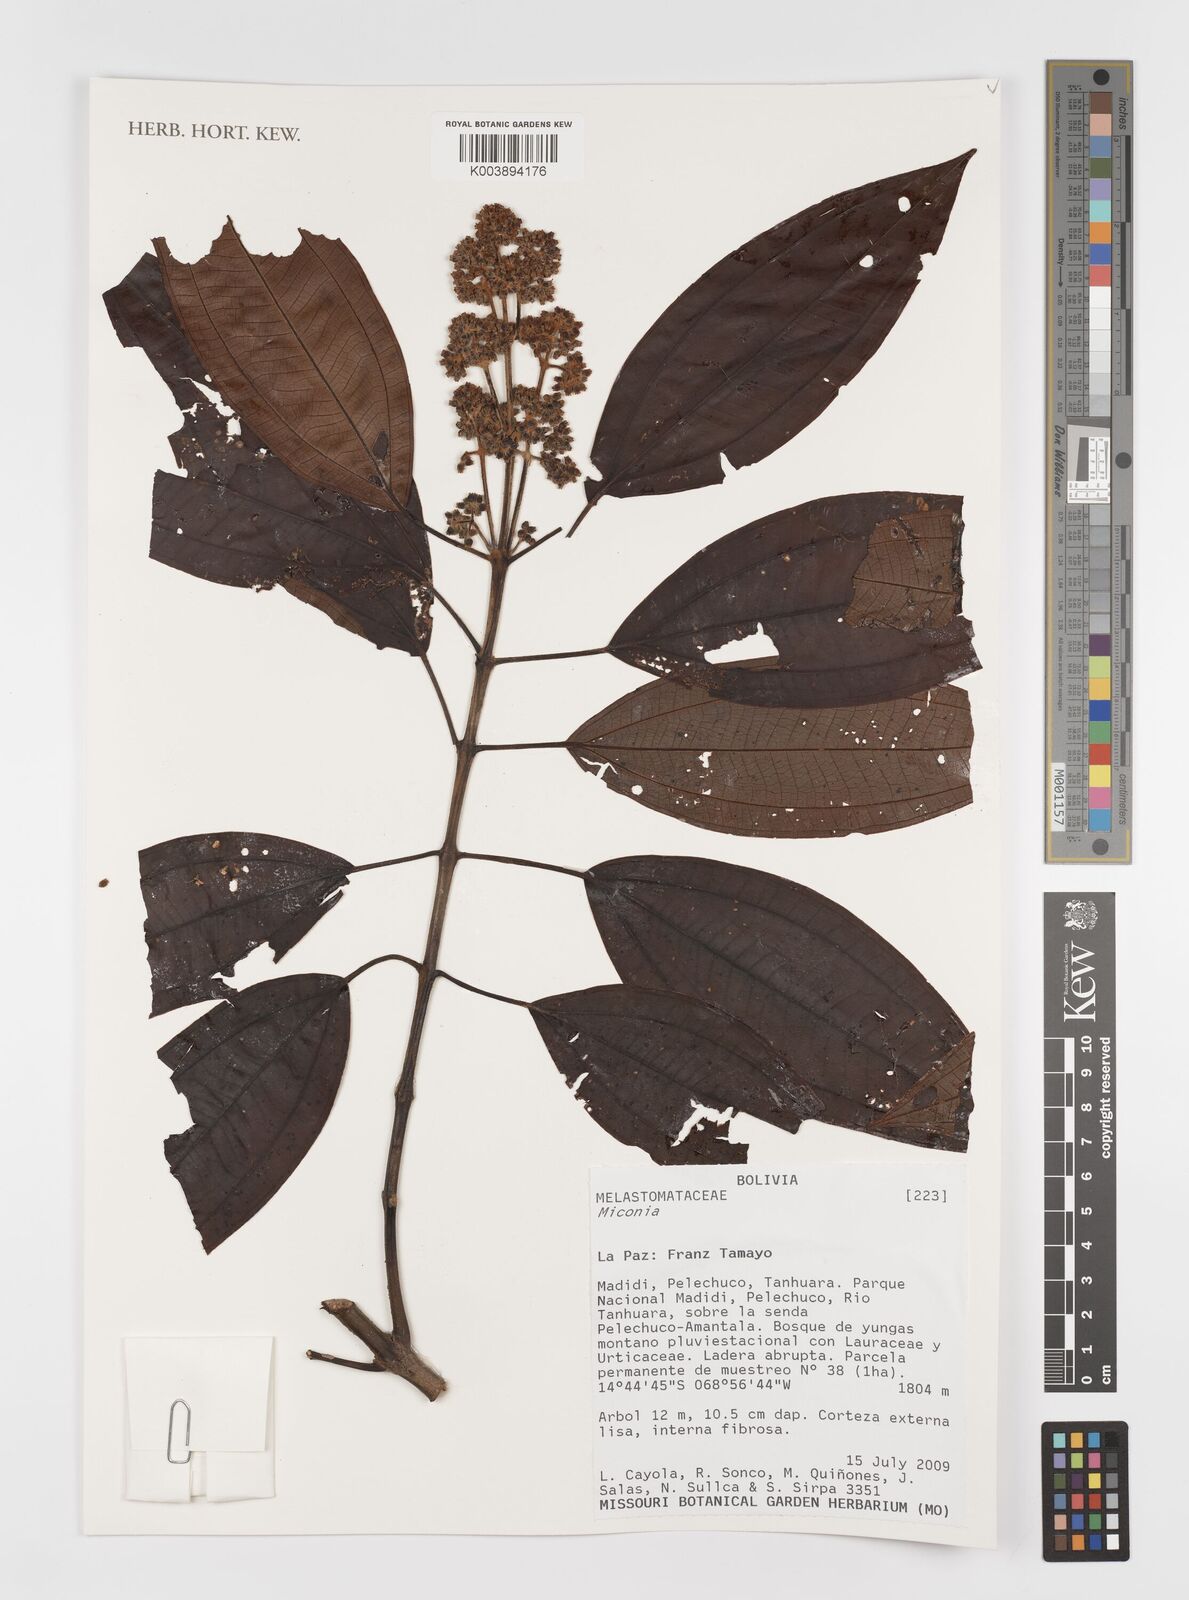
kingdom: Plantae
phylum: Tracheophyta
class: Magnoliopsida
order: Myrtales
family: Melastomataceae
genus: Miconia
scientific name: Miconia
